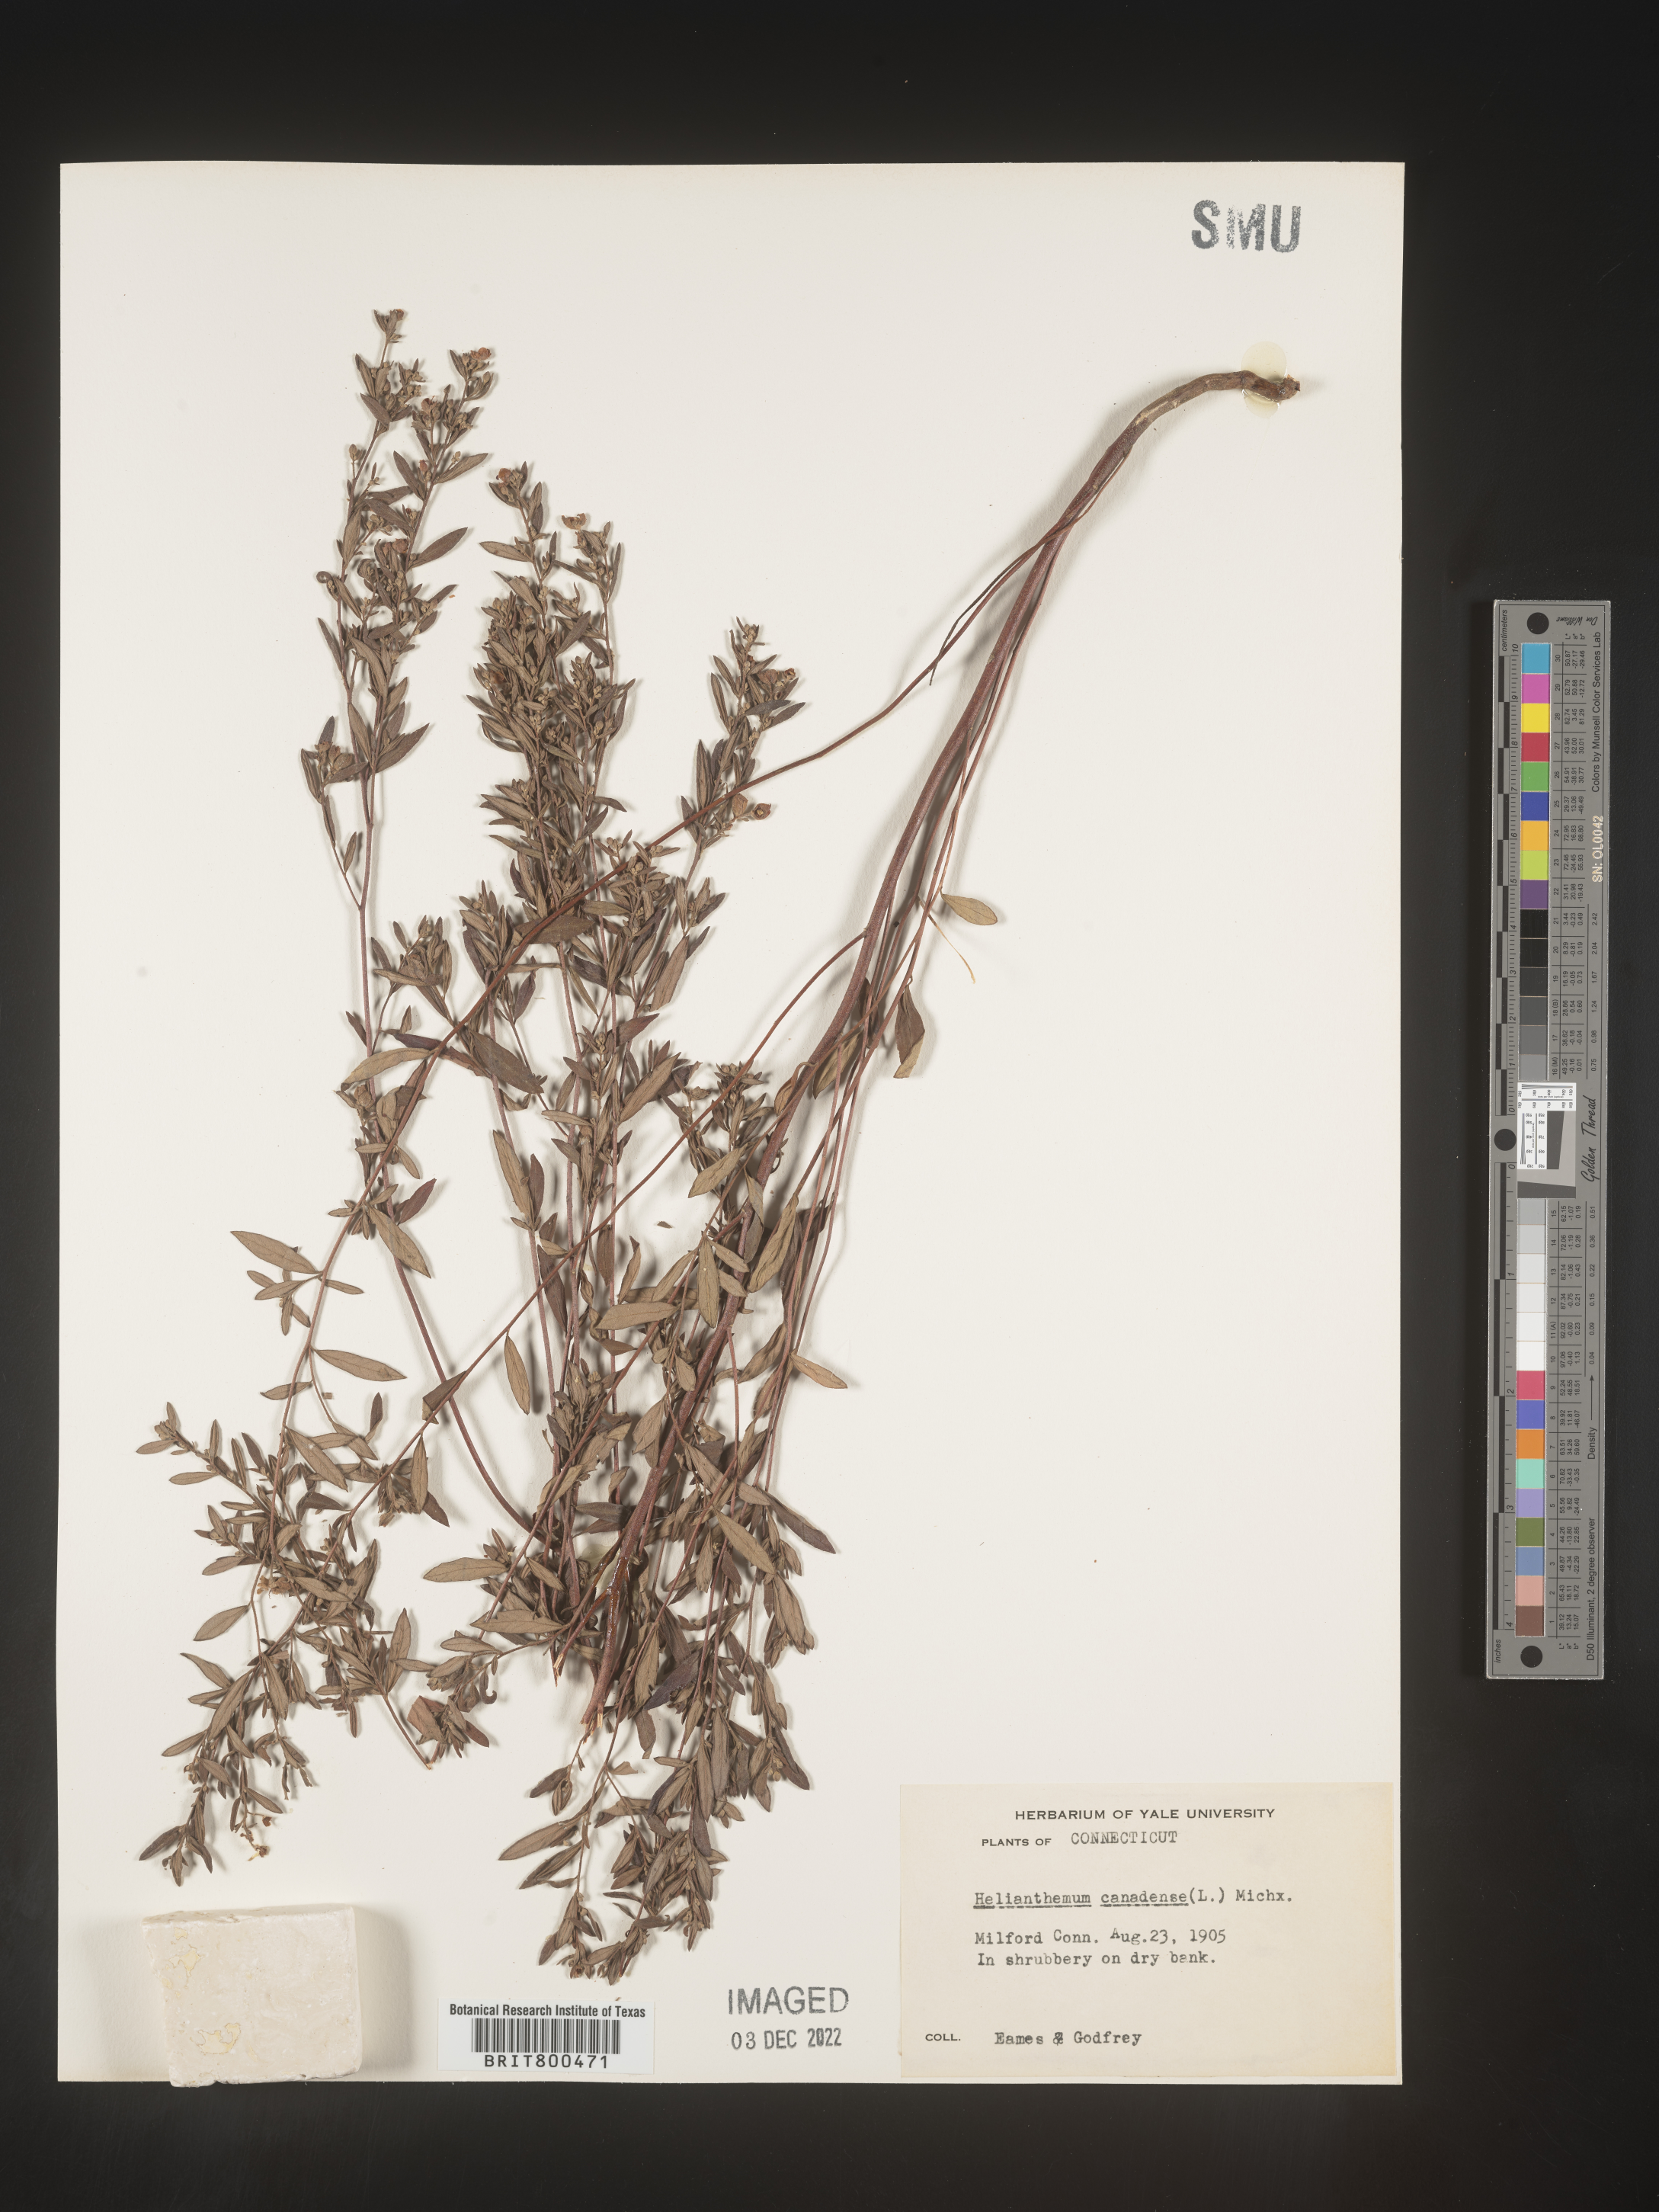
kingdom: Plantae
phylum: Tracheophyta
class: Magnoliopsida
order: Malvales
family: Cistaceae
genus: Crocanthemum
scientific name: Crocanthemum canadense
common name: Canada frostweed
